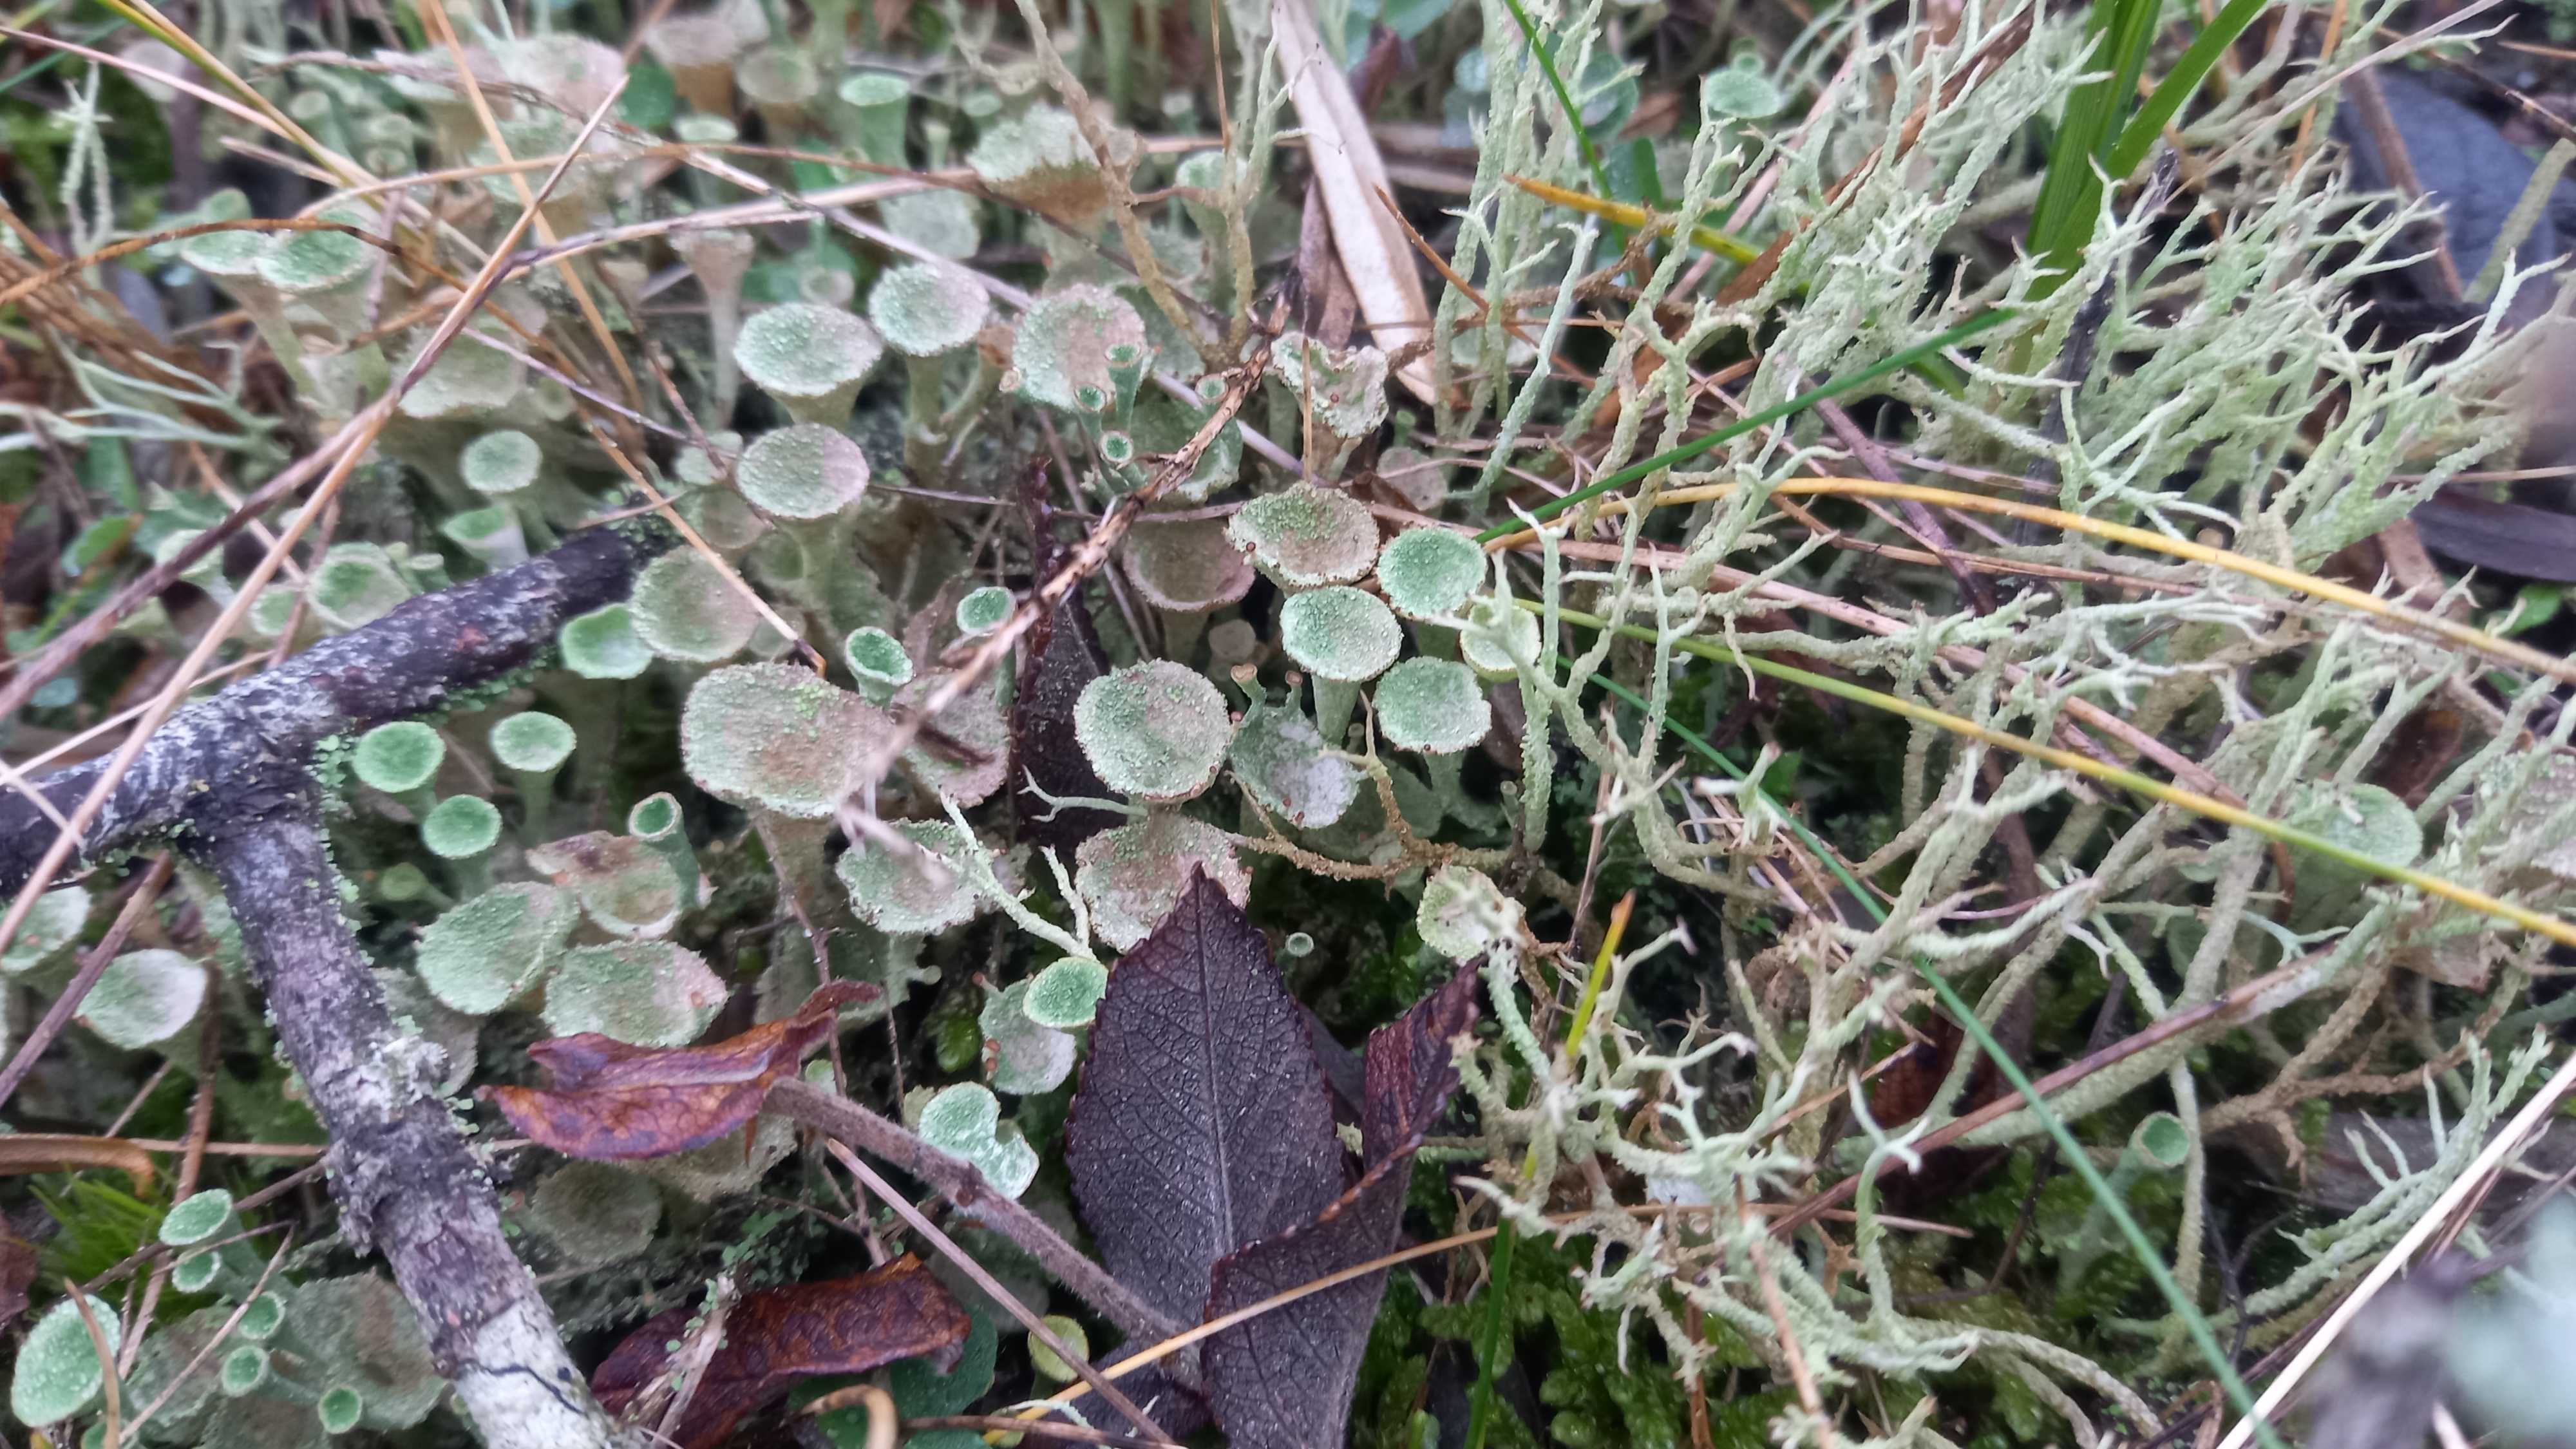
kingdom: Fungi
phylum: Ascomycota
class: Lecanoromycetes
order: Lecanorales
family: Cladoniaceae
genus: Cladonia
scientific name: Cladonia
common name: brungrøn bægerlav
